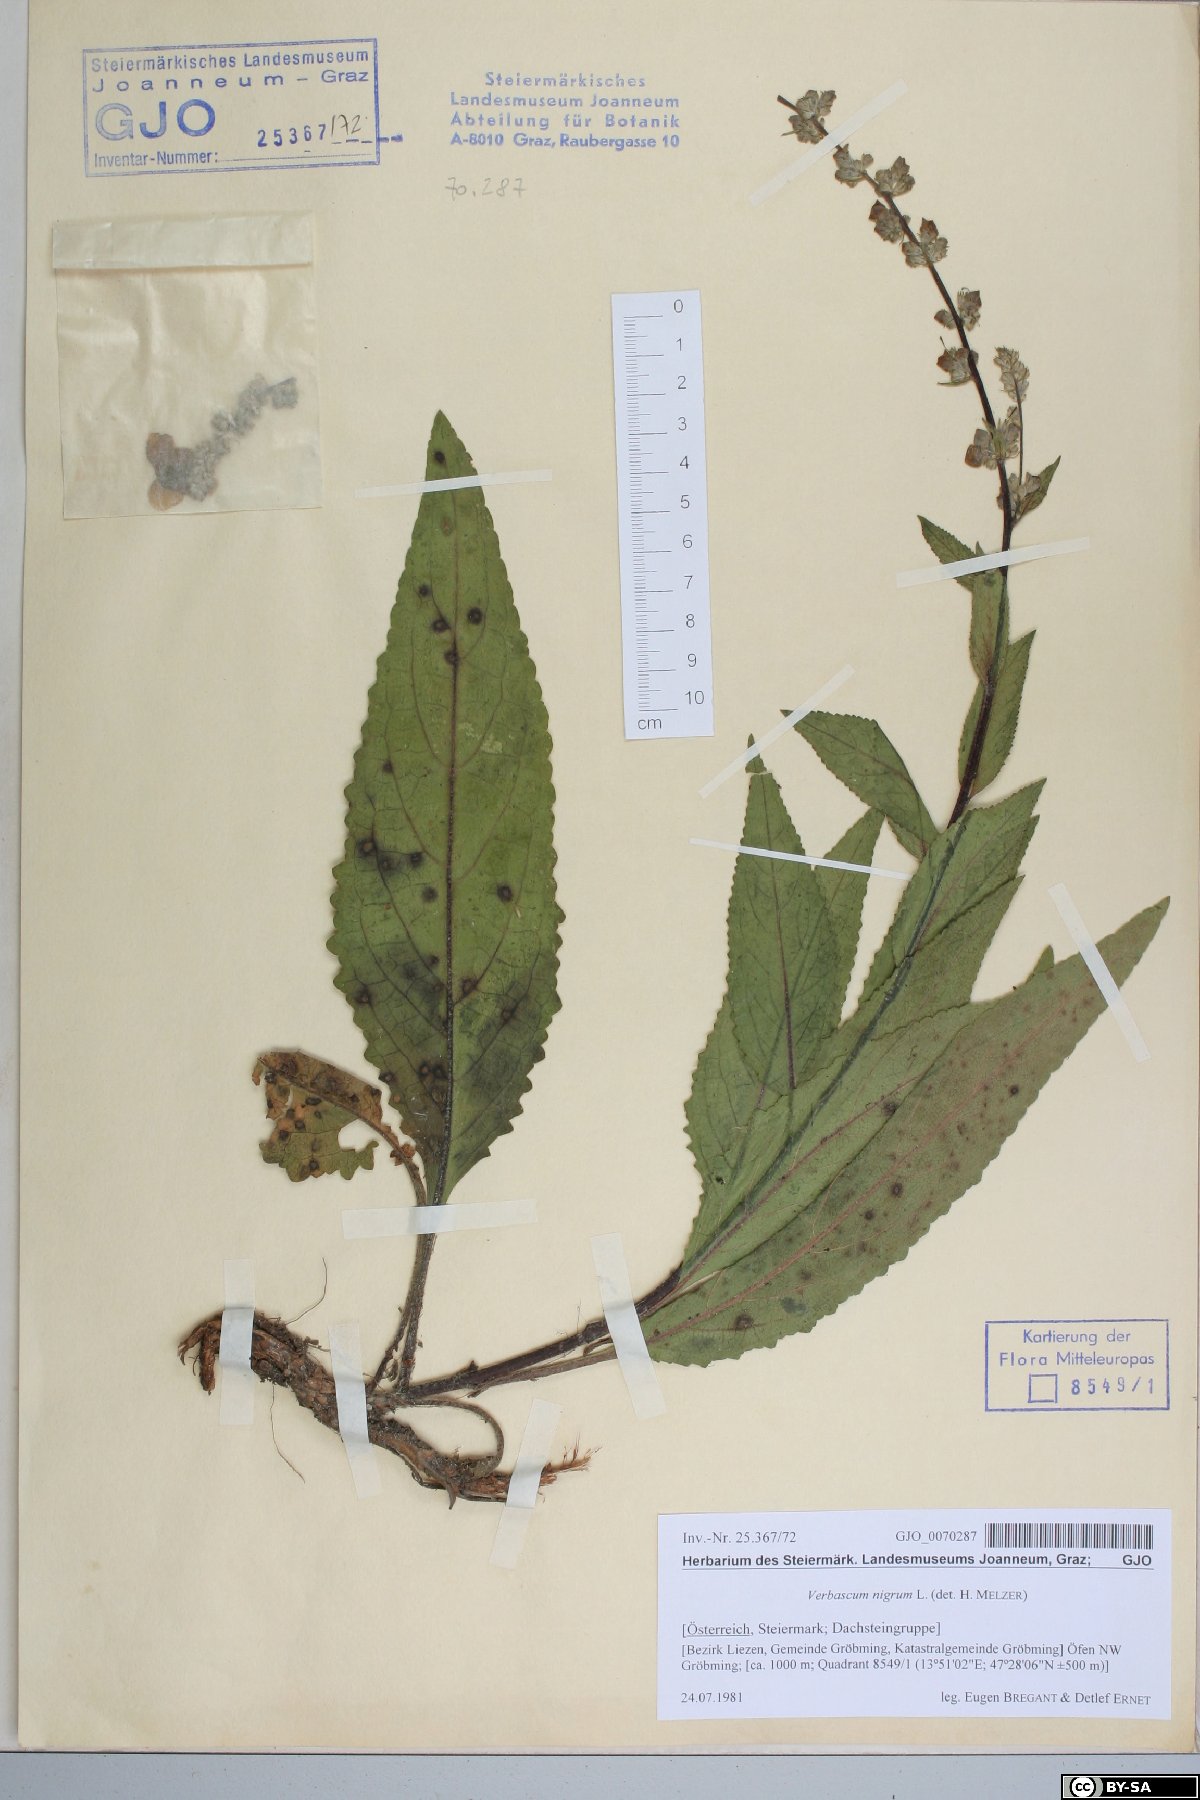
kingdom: Plantae
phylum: Tracheophyta
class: Magnoliopsida
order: Lamiales
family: Scrophulariaceae
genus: Verbascum
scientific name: Verbascum nigrum
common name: Dark mullein
